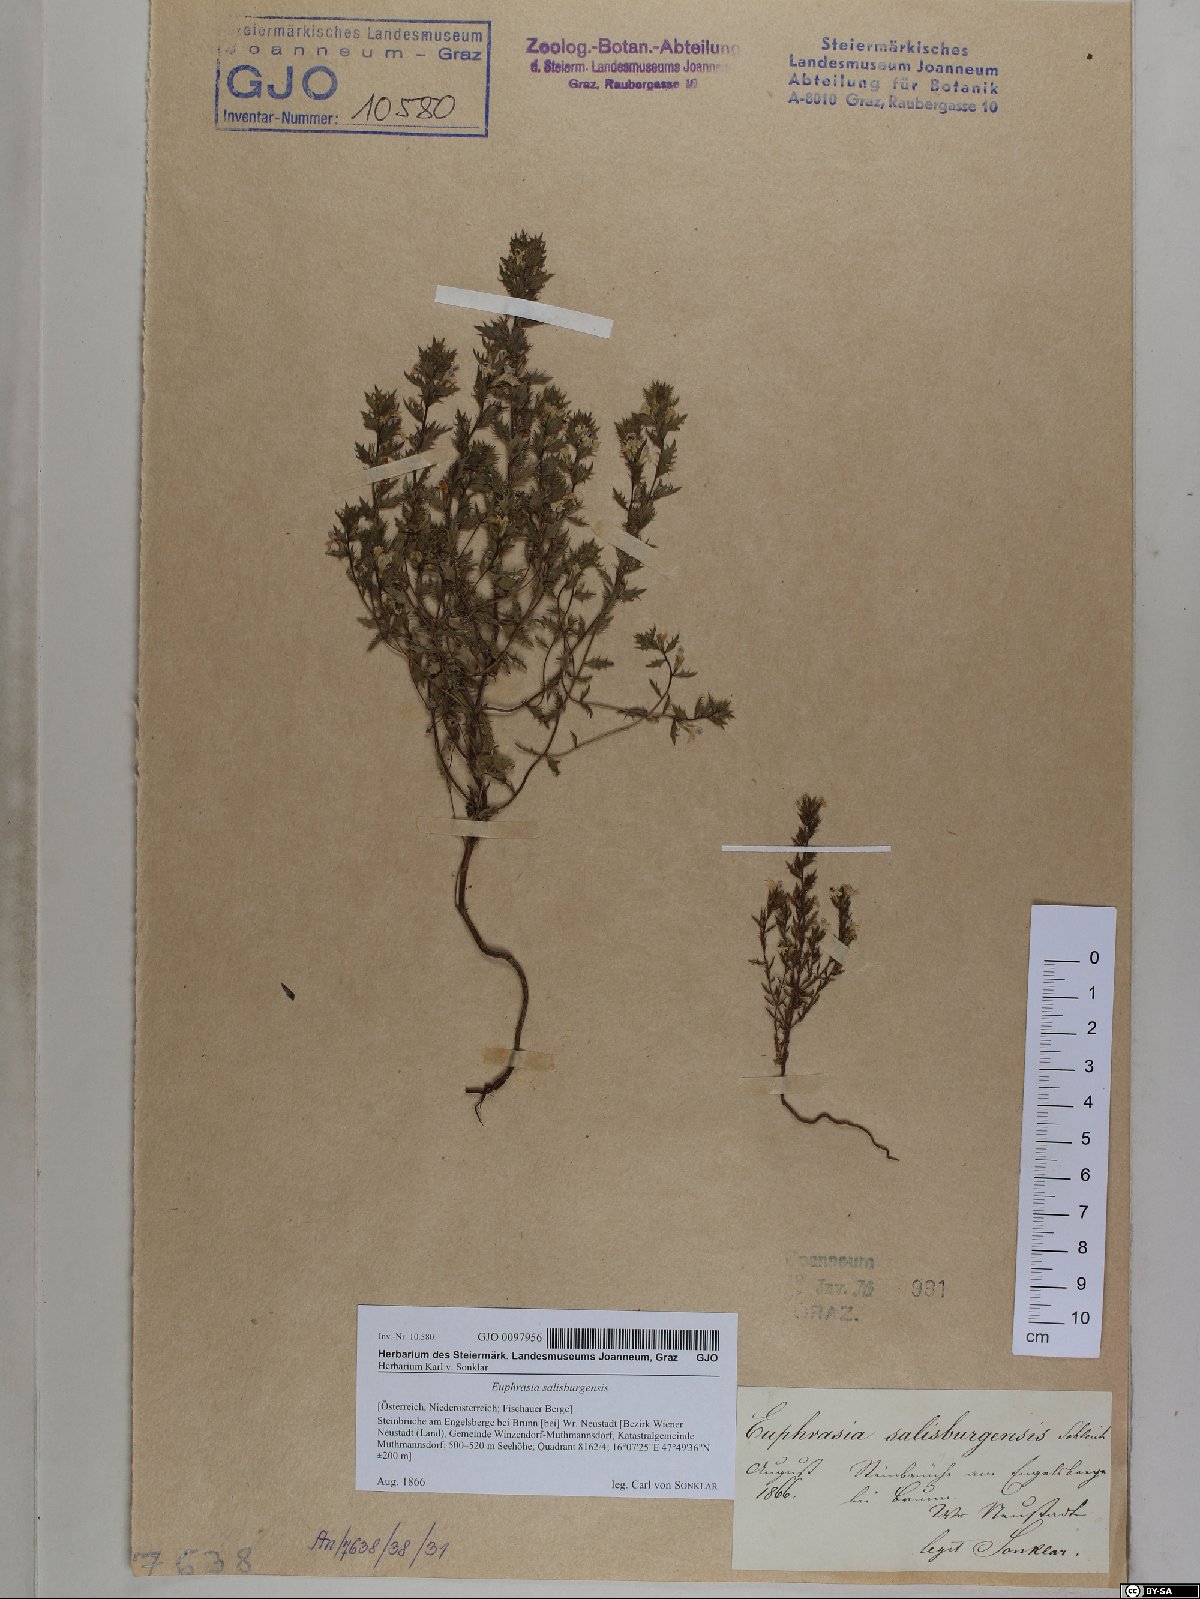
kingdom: Plantae
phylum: Tracheophyta
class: Magnoliopsida
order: Lamiales
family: Orobanchaceae
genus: Euphrasia
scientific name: Euphrasia salisburgensis
